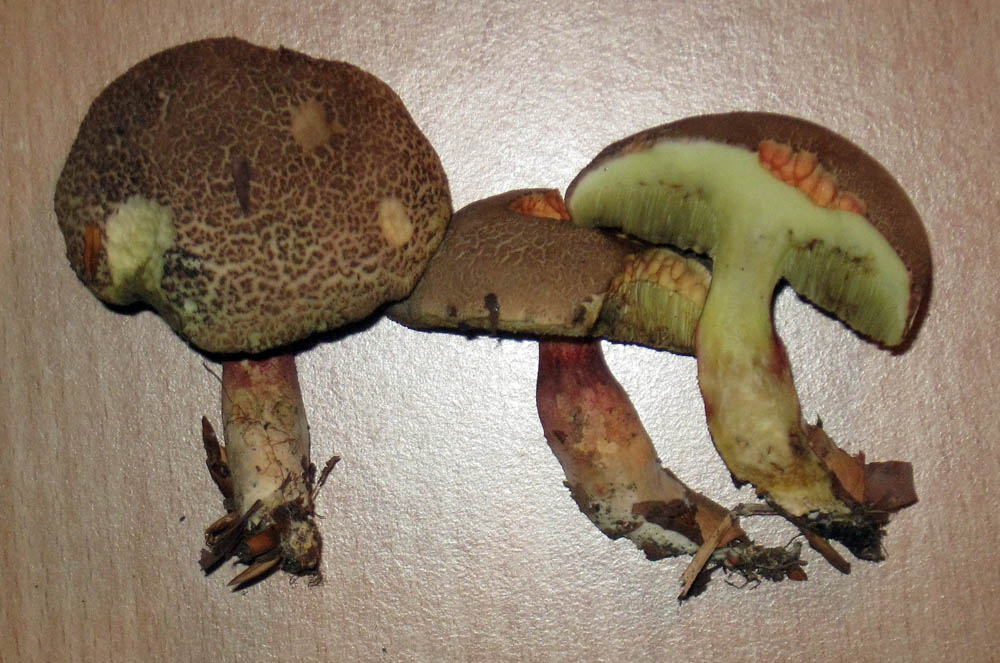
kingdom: Fungi
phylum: Basidiomycota
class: Agaricomycetes
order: Boletales
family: Boletaceae
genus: Xerocomellus
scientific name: Xerocomellus chrysenteron
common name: rødsprukken rørhat
